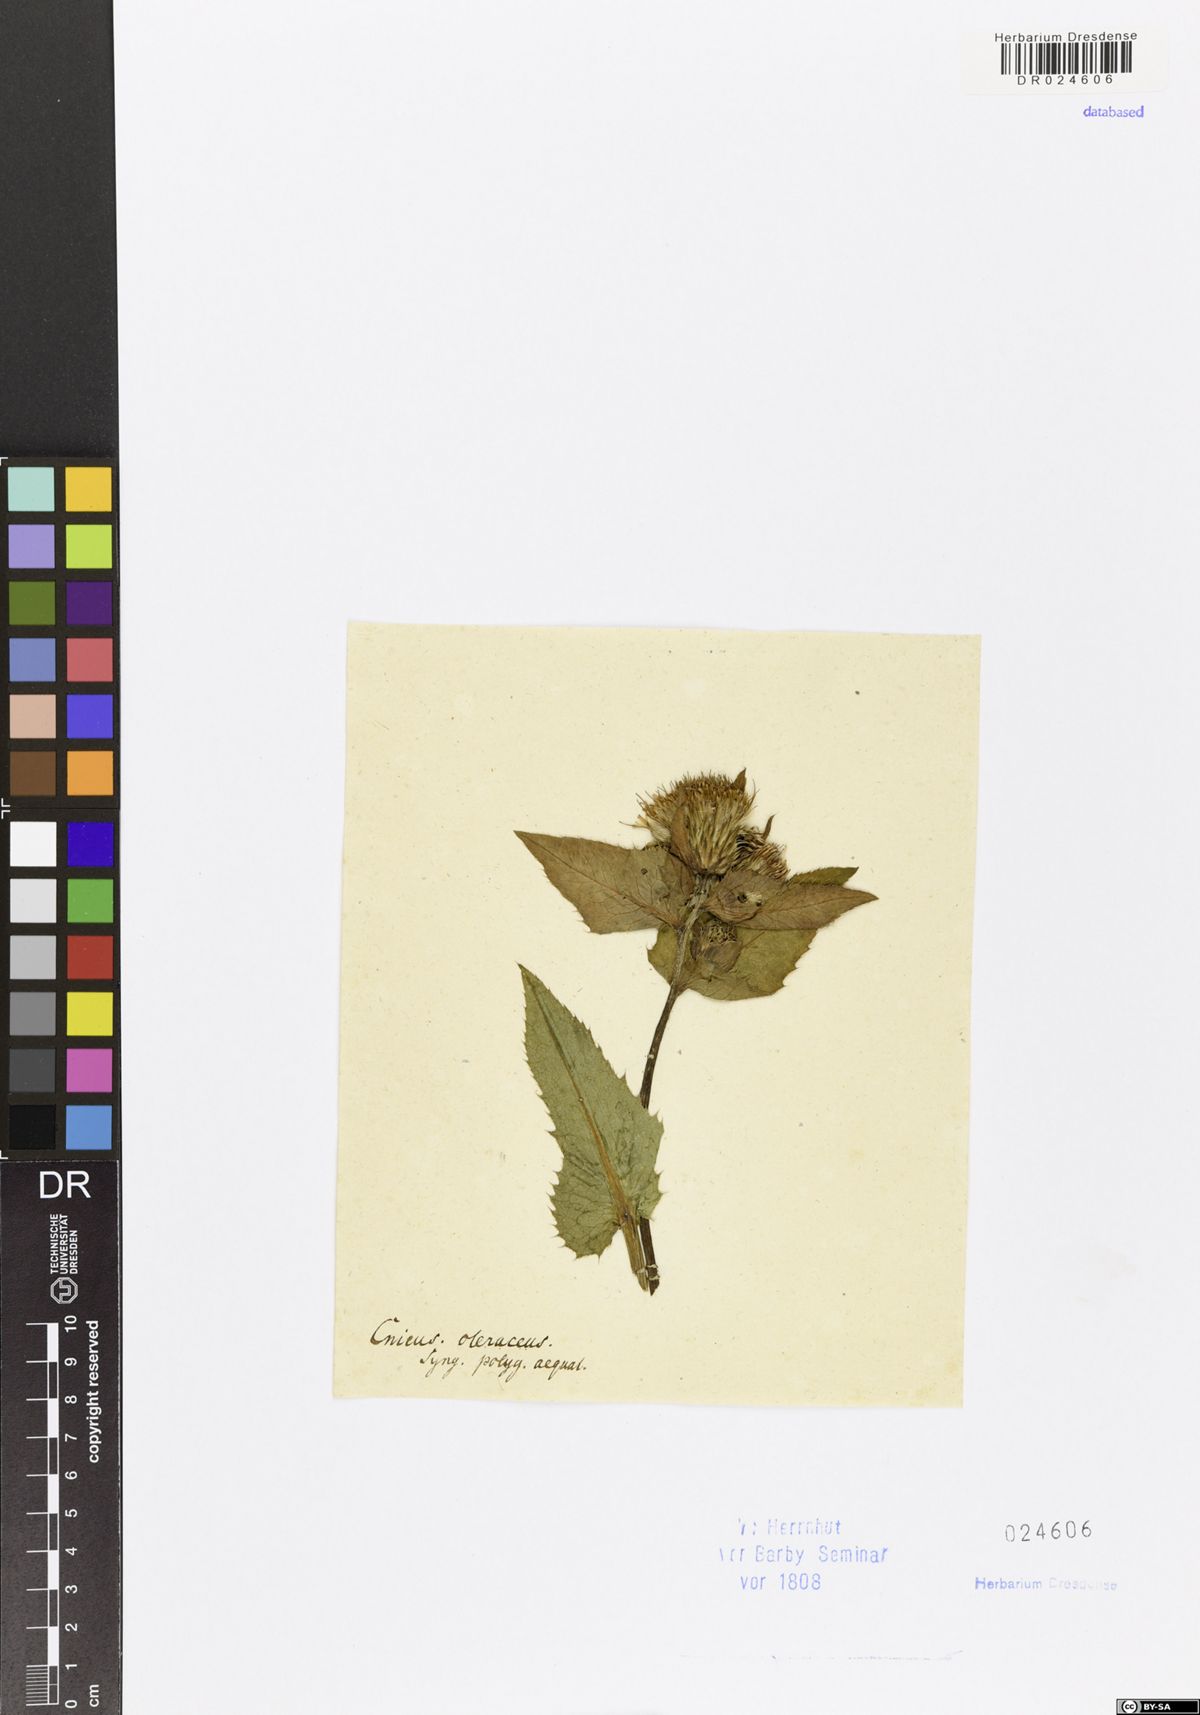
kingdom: Plantae
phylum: Tracheophyta
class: Magnoliopsida
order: Asterales
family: Asteraceae
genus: Cirsium
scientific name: Cirsium oleraceum
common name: Cabbage thistle
